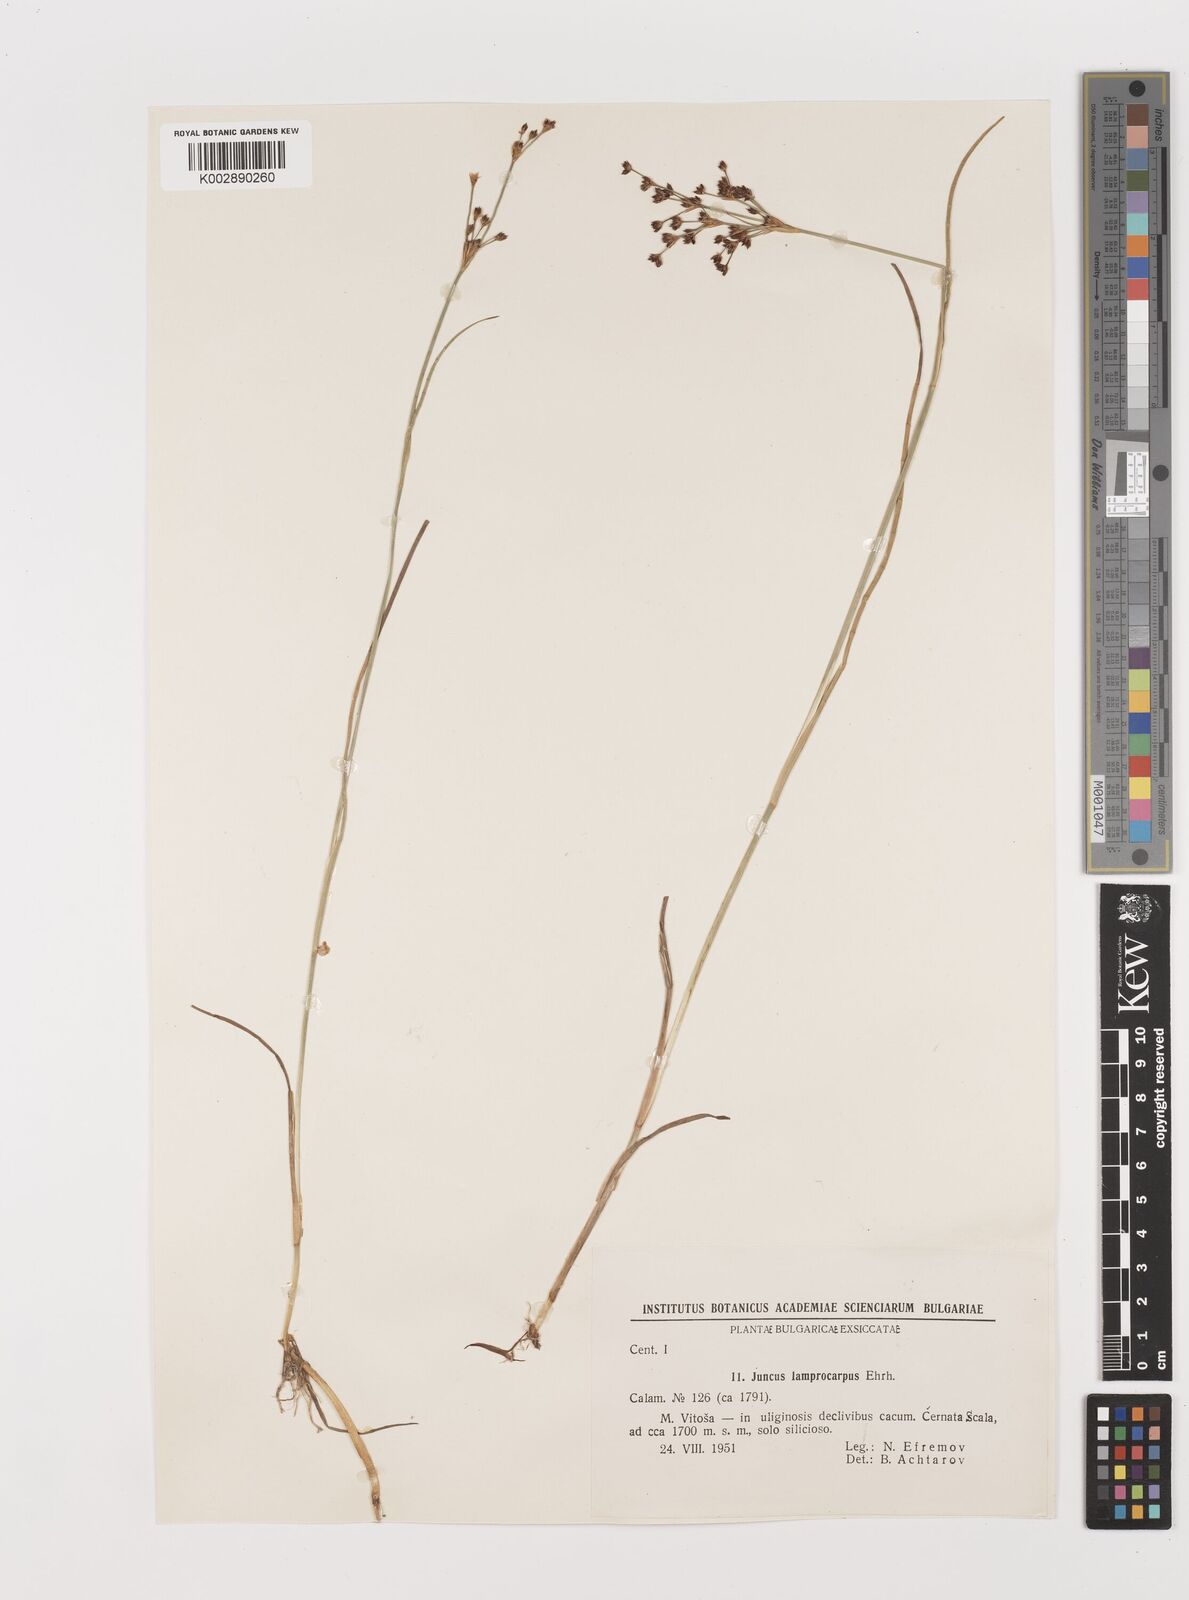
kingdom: Plantae
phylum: Tracheophyta
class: Liliopsida
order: Poales
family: Juncaceae
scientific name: Juncaceae
